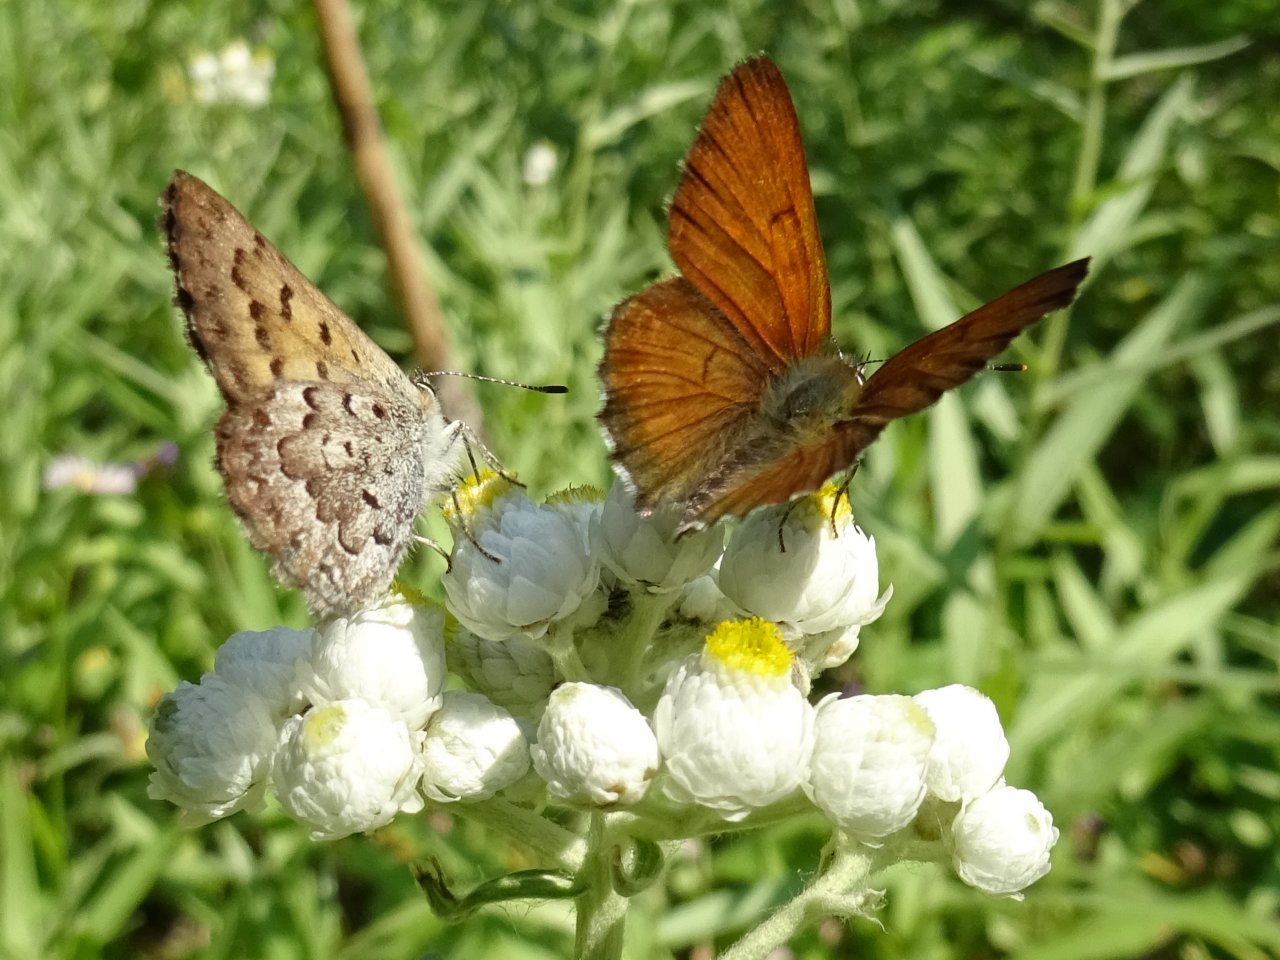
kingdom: Animalia
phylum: Arthropoda
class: Insecta
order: Lepidoptera
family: Lycaenidae
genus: Lycaena
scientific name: Lycaena mariposa
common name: Mariposa Copper
